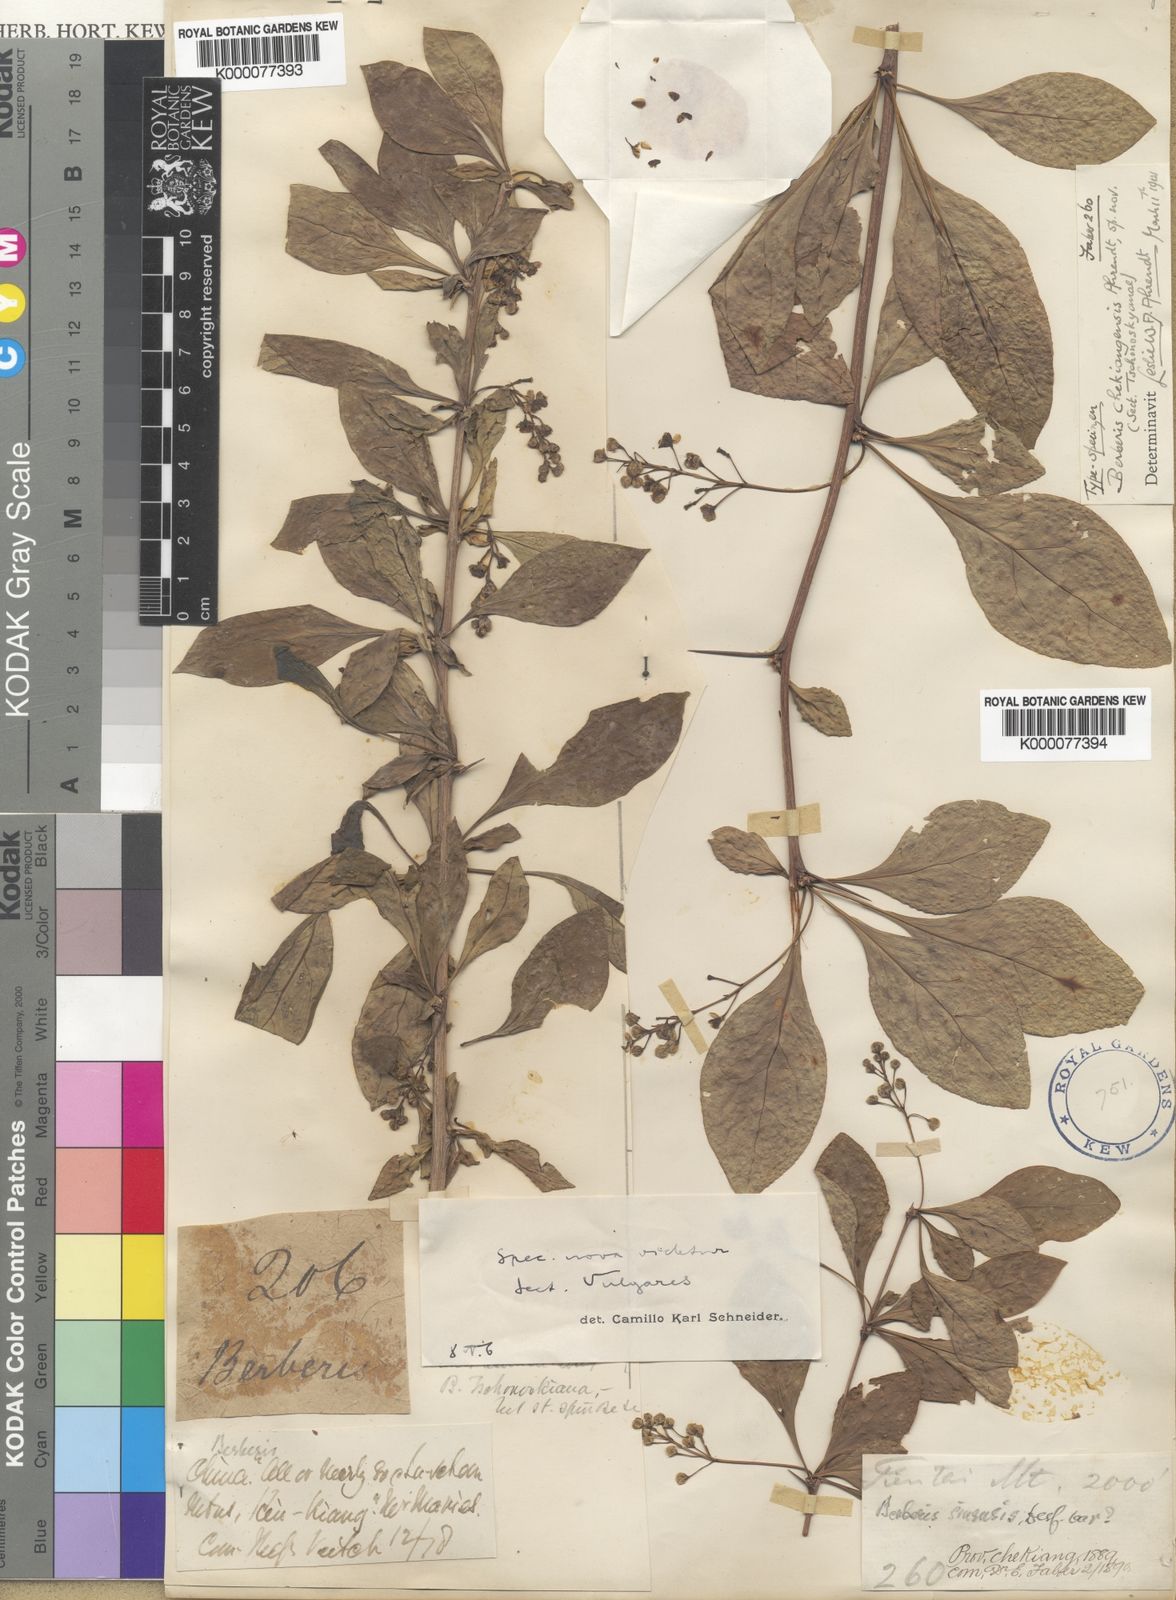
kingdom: Plantae
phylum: Tracheophyta
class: Magnoliopsida
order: Ranunculales
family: Berberidaceae
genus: Berberis
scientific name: Berberis virgetorum
